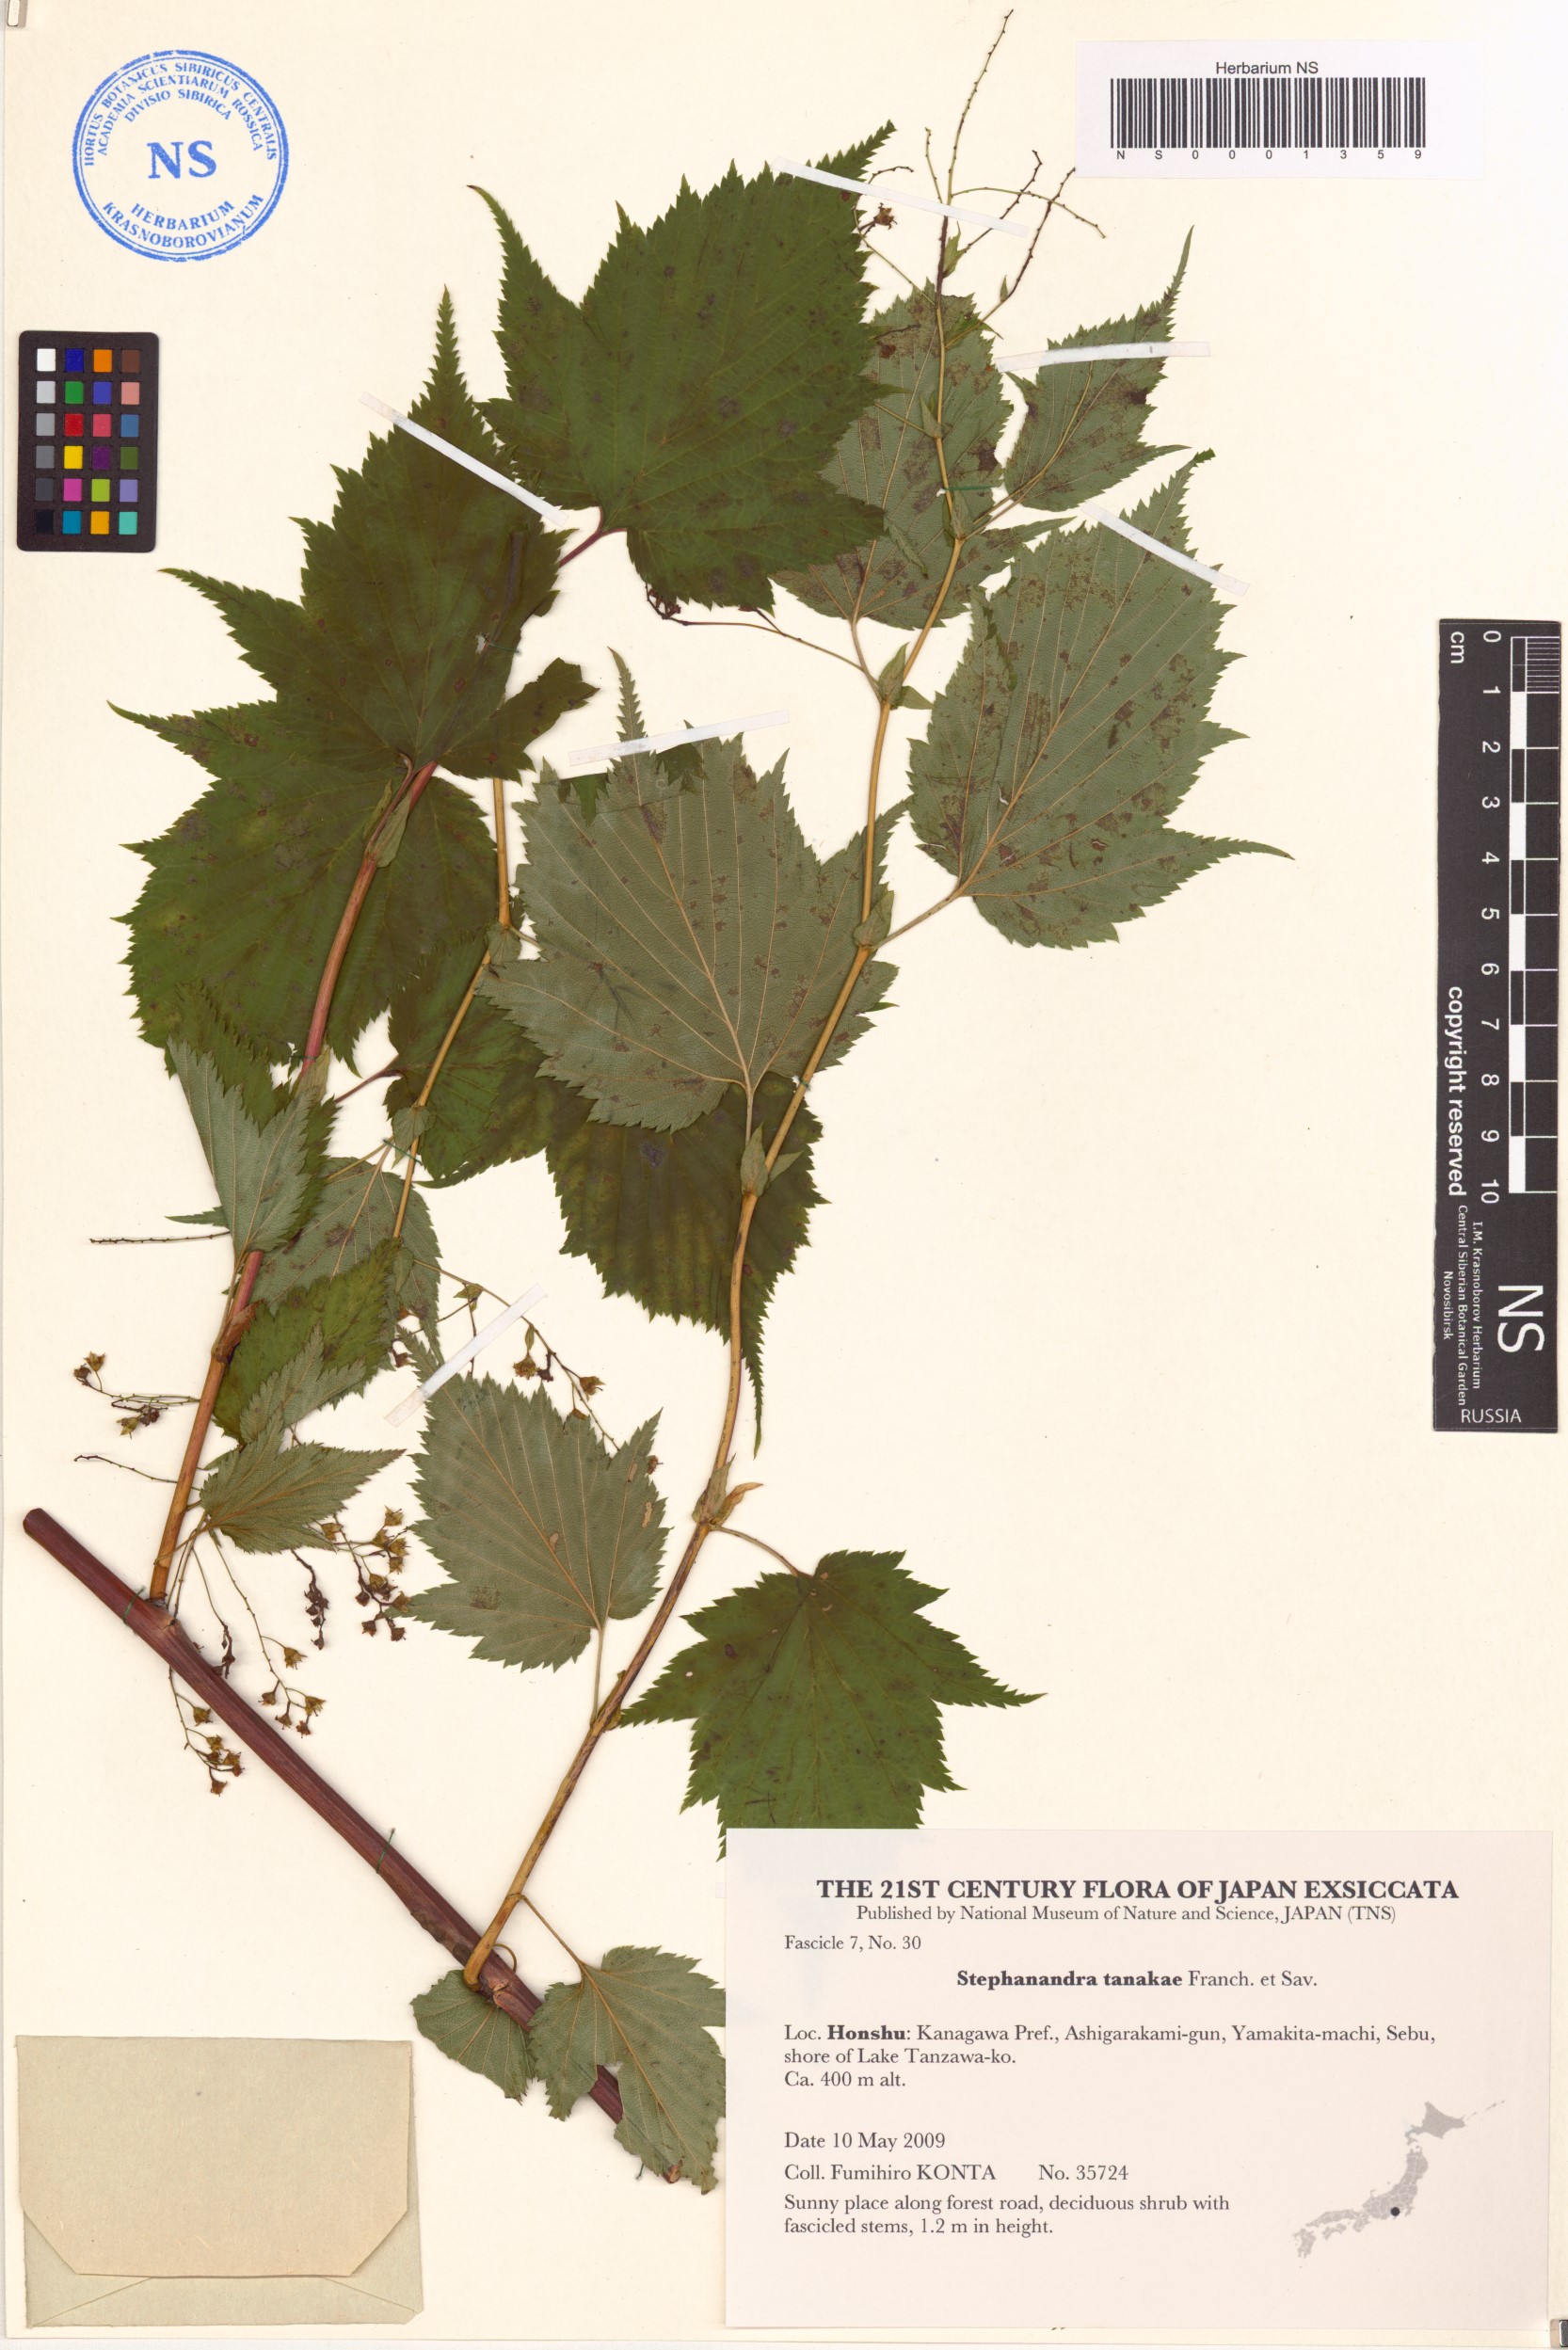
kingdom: Plantae
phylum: Tracheophyta
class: Magnoliopsida
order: Rosales
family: Rosaceae
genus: Neillia
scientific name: Neillia tanakae
